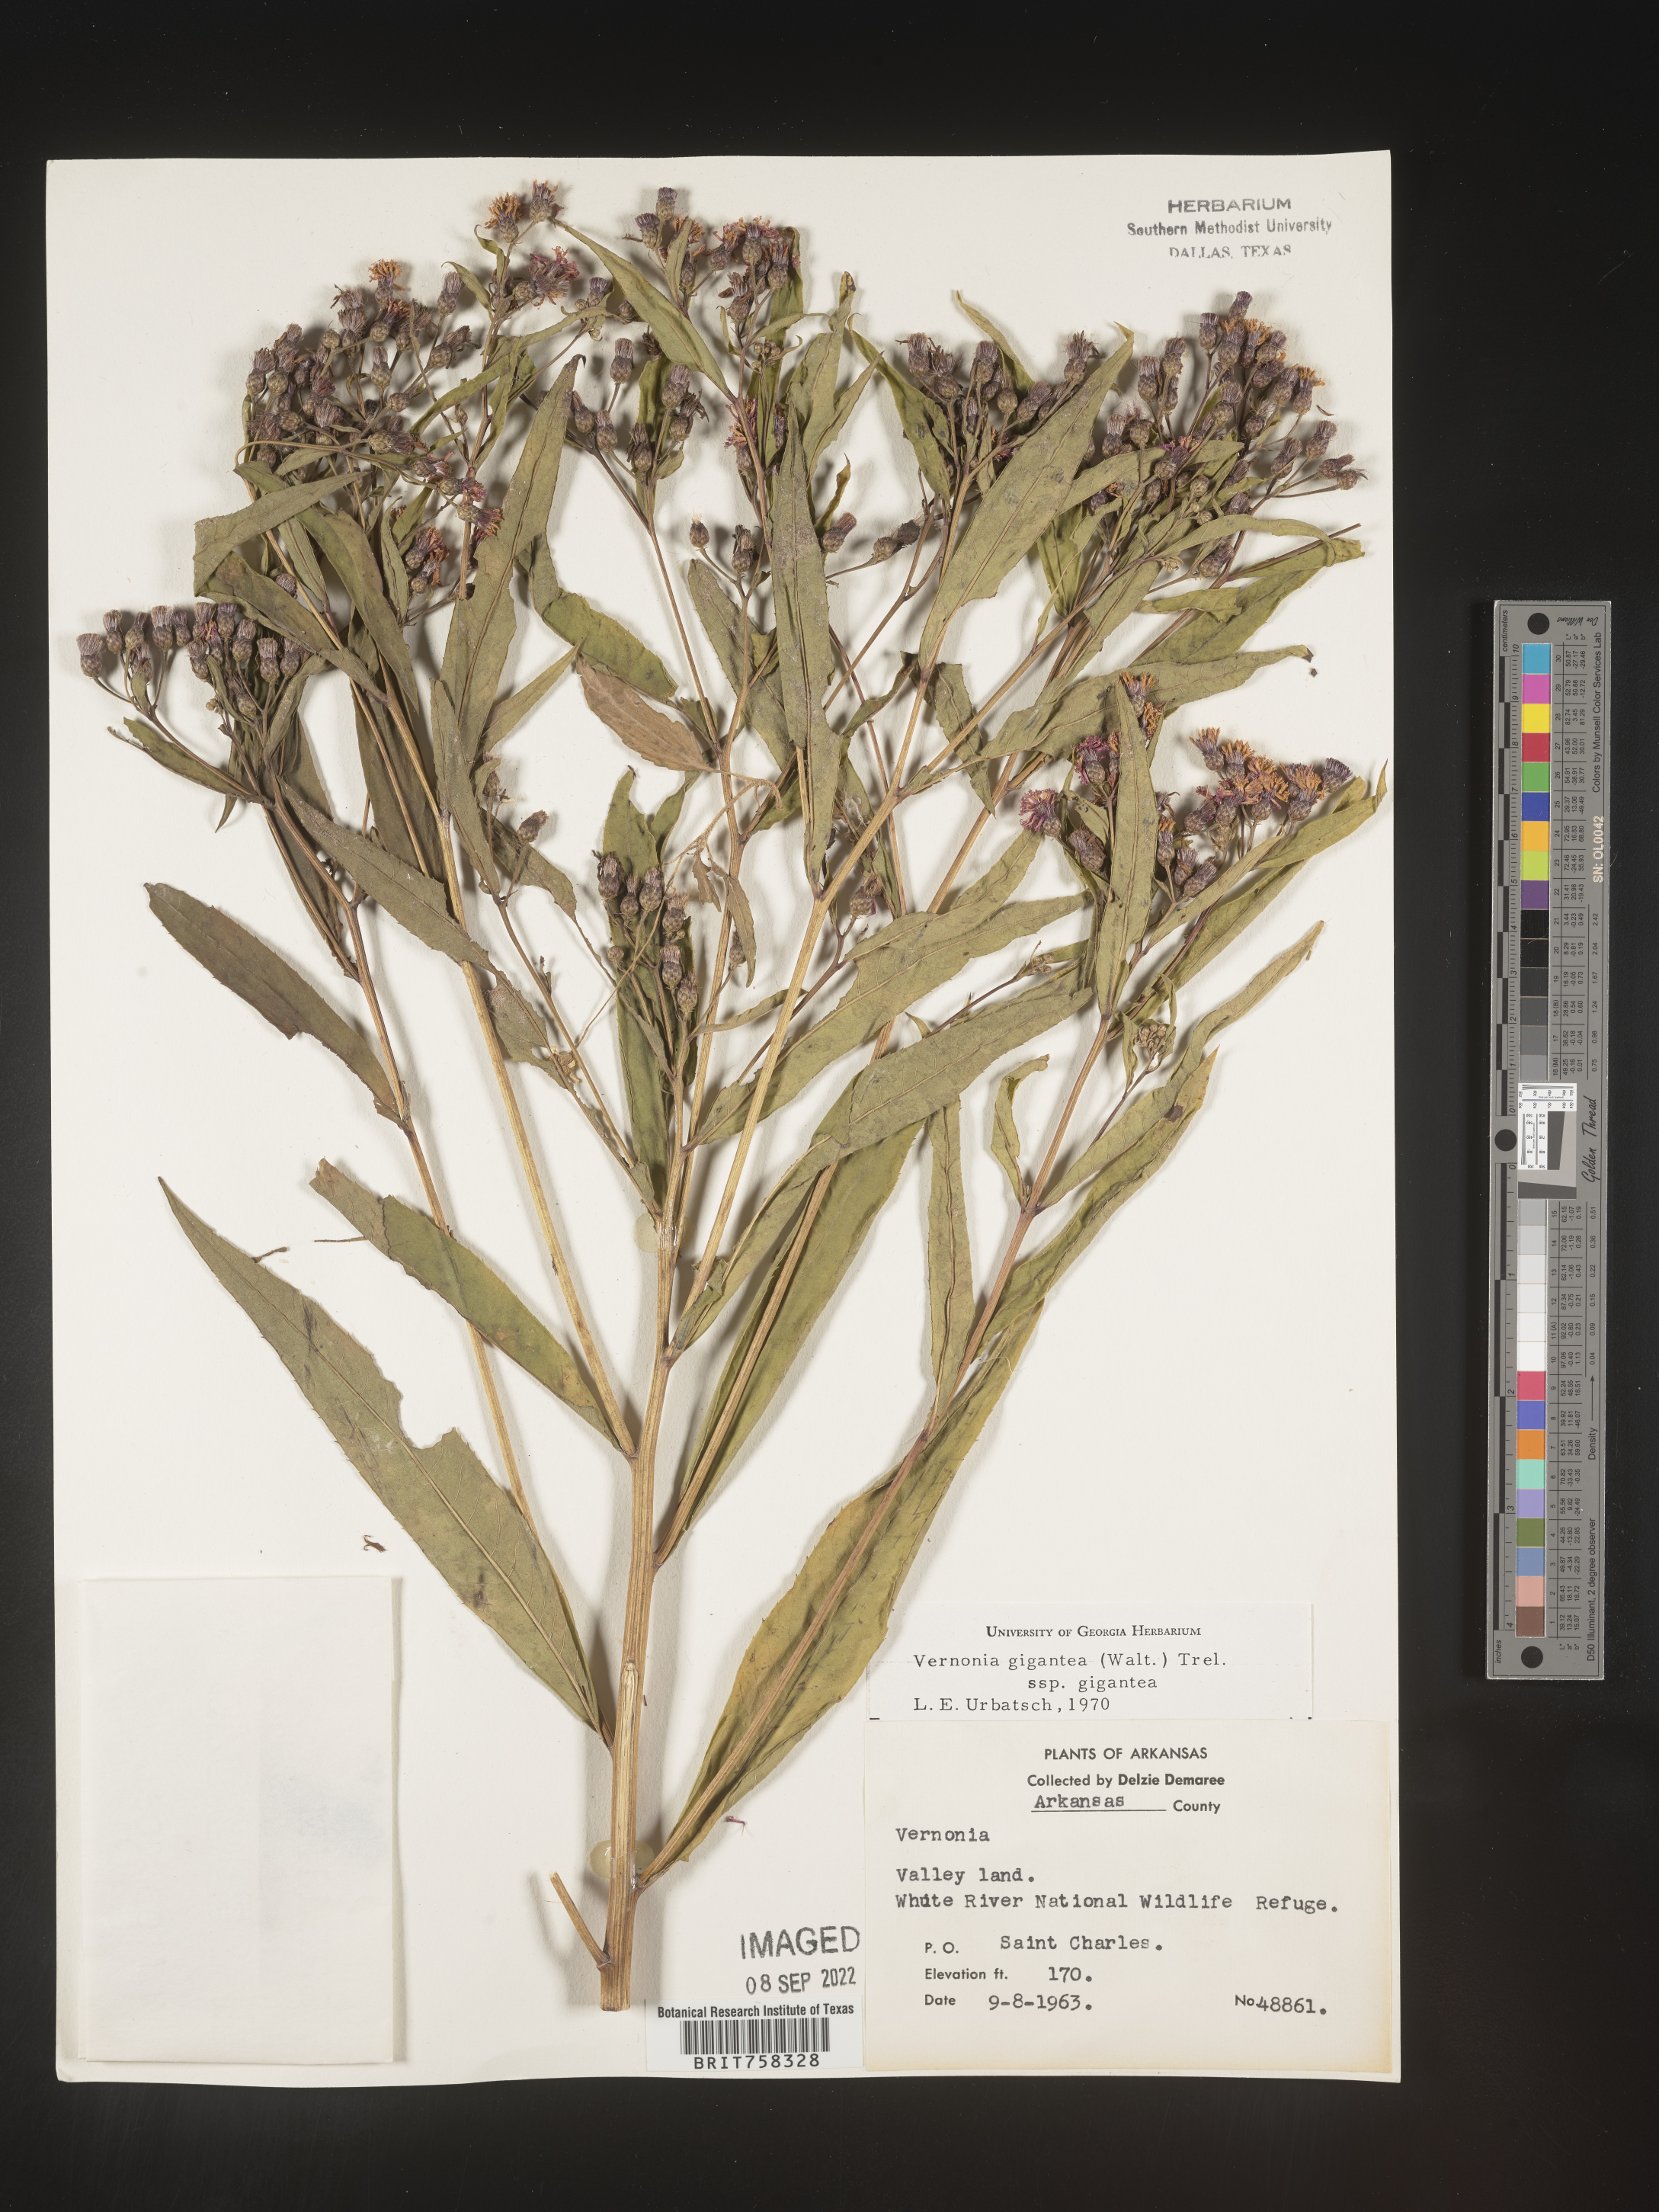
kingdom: Plantae
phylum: Tracheophyta
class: Magnoliopsida
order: Asterales
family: Asteraceae
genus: Vernonia
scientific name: Vernonia gigantea
